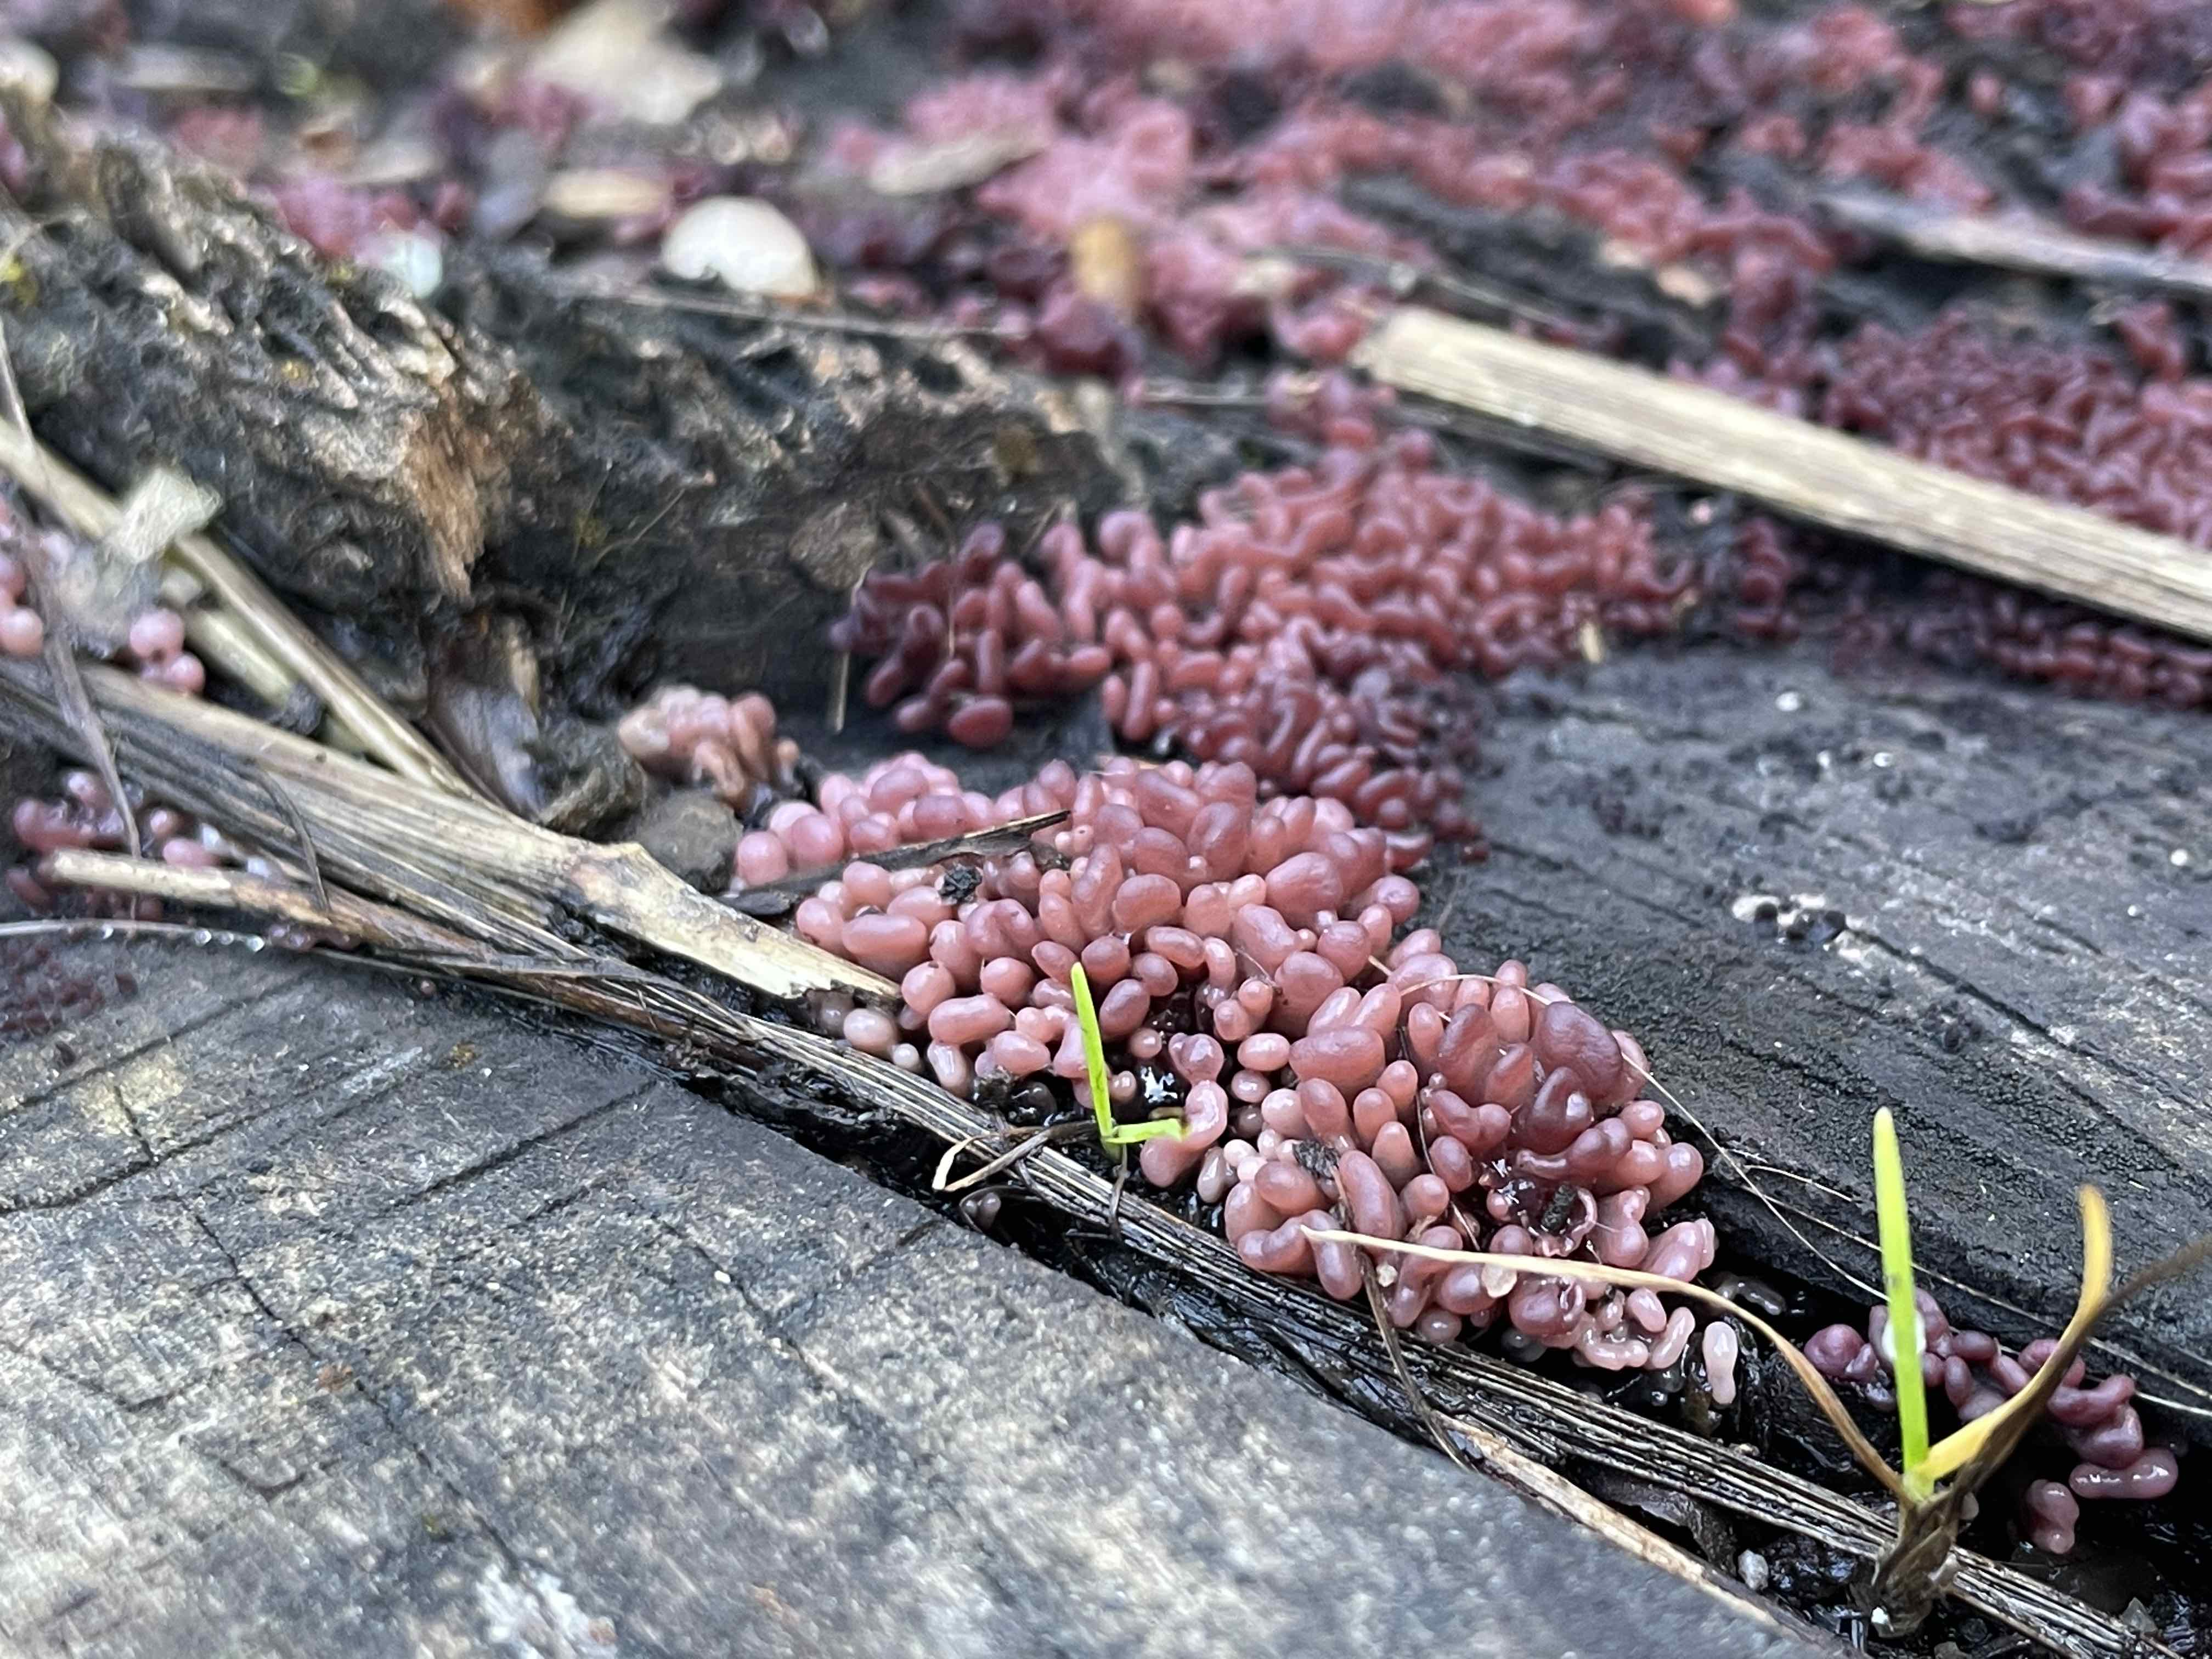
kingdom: Fungi
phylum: Ascomycota
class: Leotiomycetes
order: Helotiales
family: Gelatinodiscaceae
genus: Ascocoryne
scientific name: Ascocoryne sarcoides
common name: rødlilla sejskive
